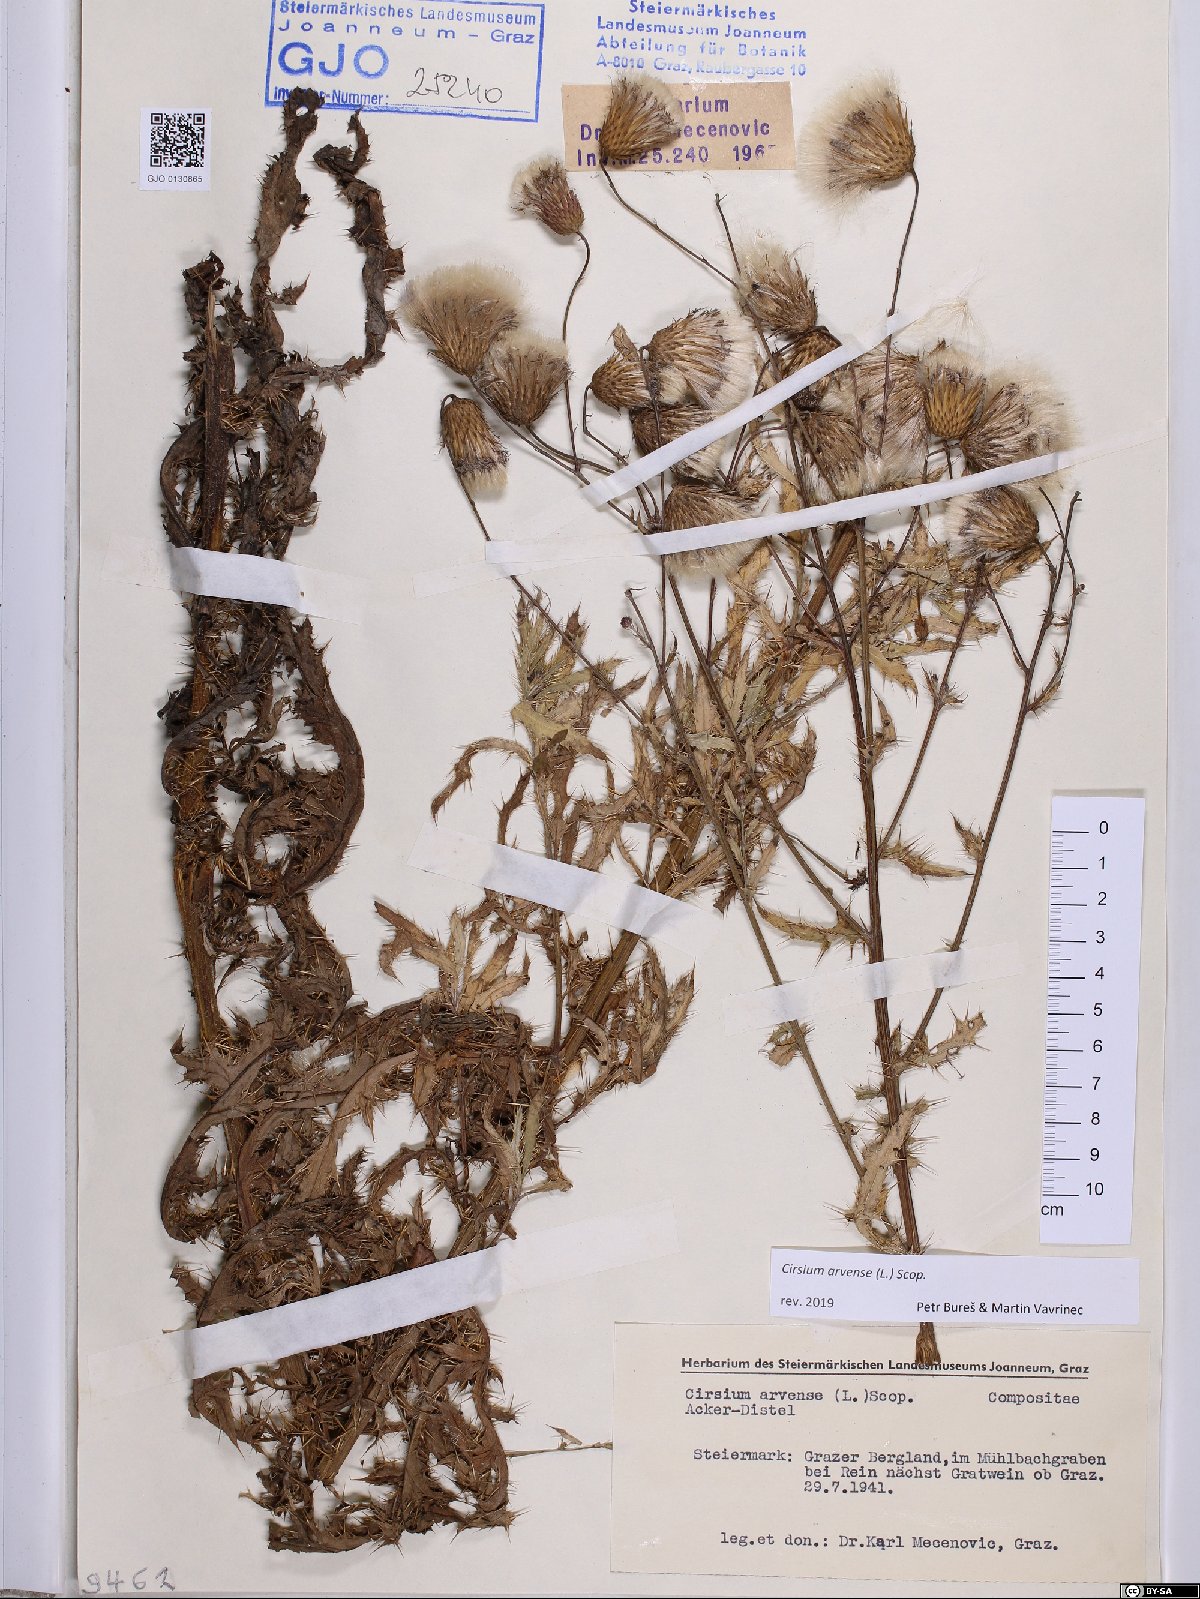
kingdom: Plantae
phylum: Tracheophyta
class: Magnoliopsida
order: Asterales
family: Asteraceae
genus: Cirsium
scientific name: Cirsium arvense
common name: Creeping thistle
